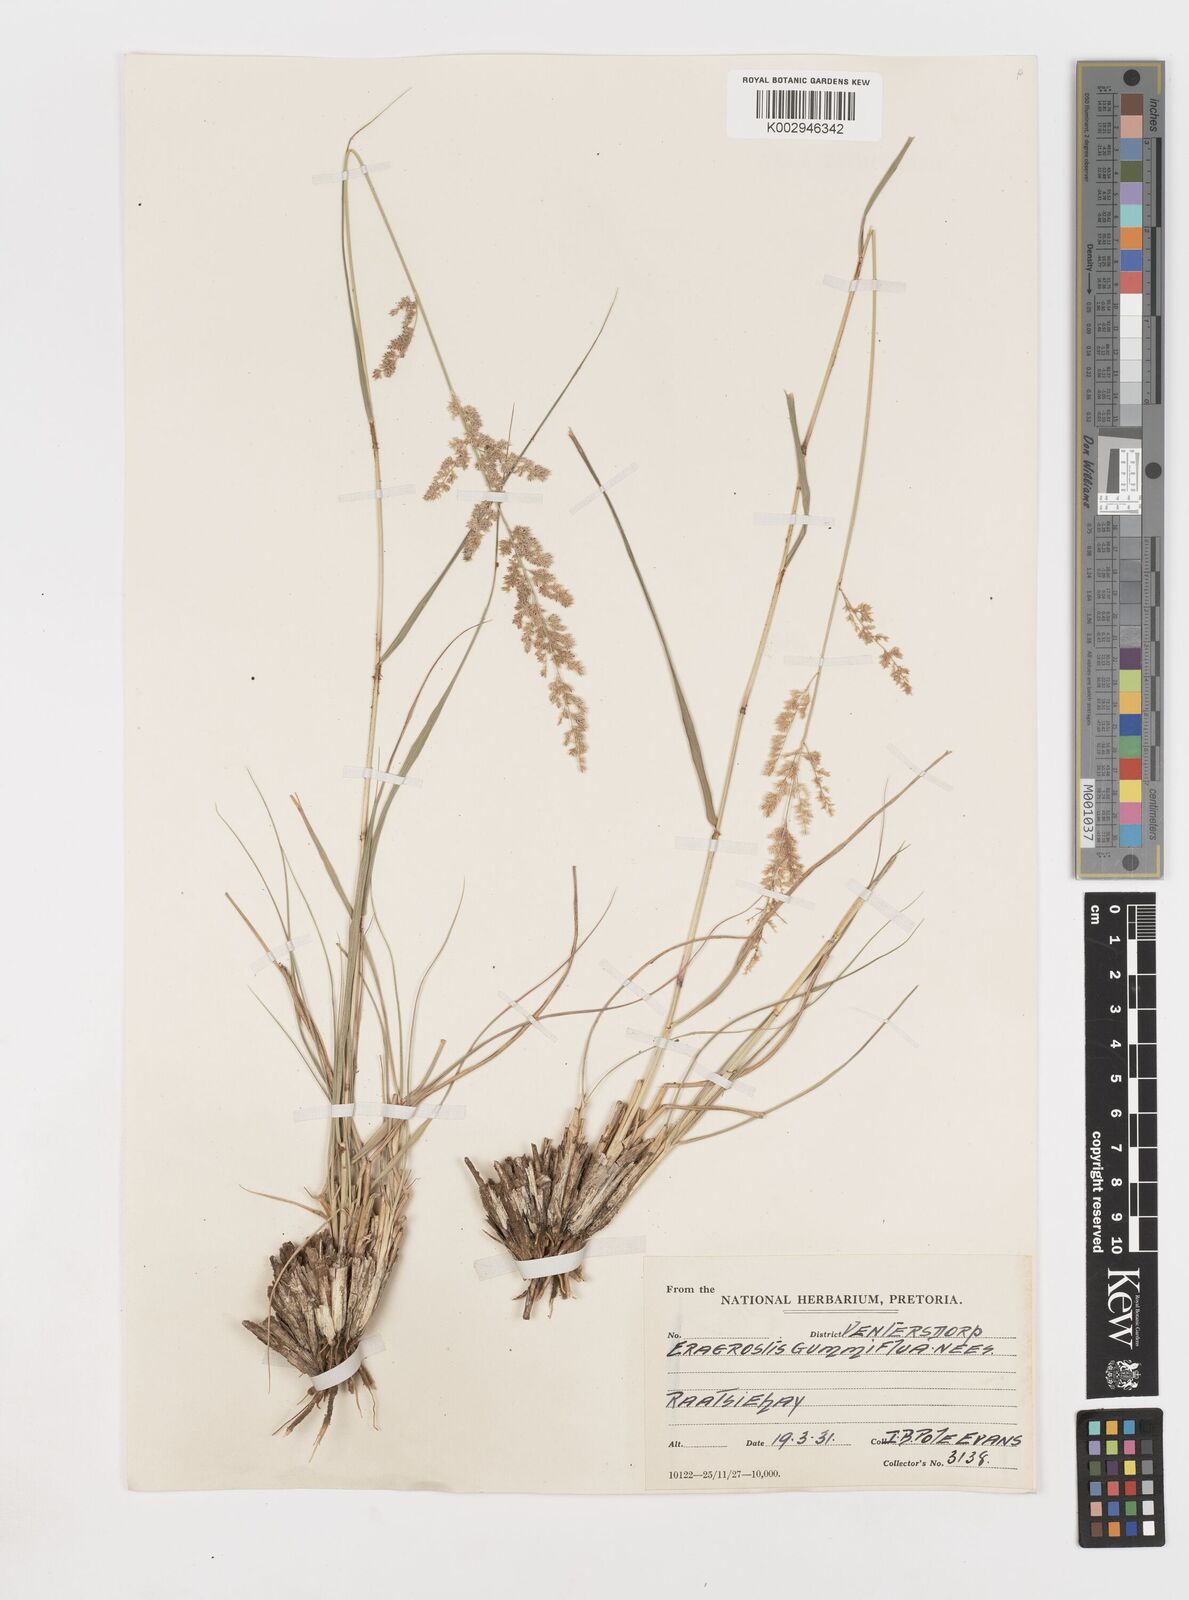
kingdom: Plantae
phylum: Tracheophyta
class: Liliopsida
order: Poales
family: Poaceae
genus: Eragrostis
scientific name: Eragrostis gummiflua
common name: Gum grass
